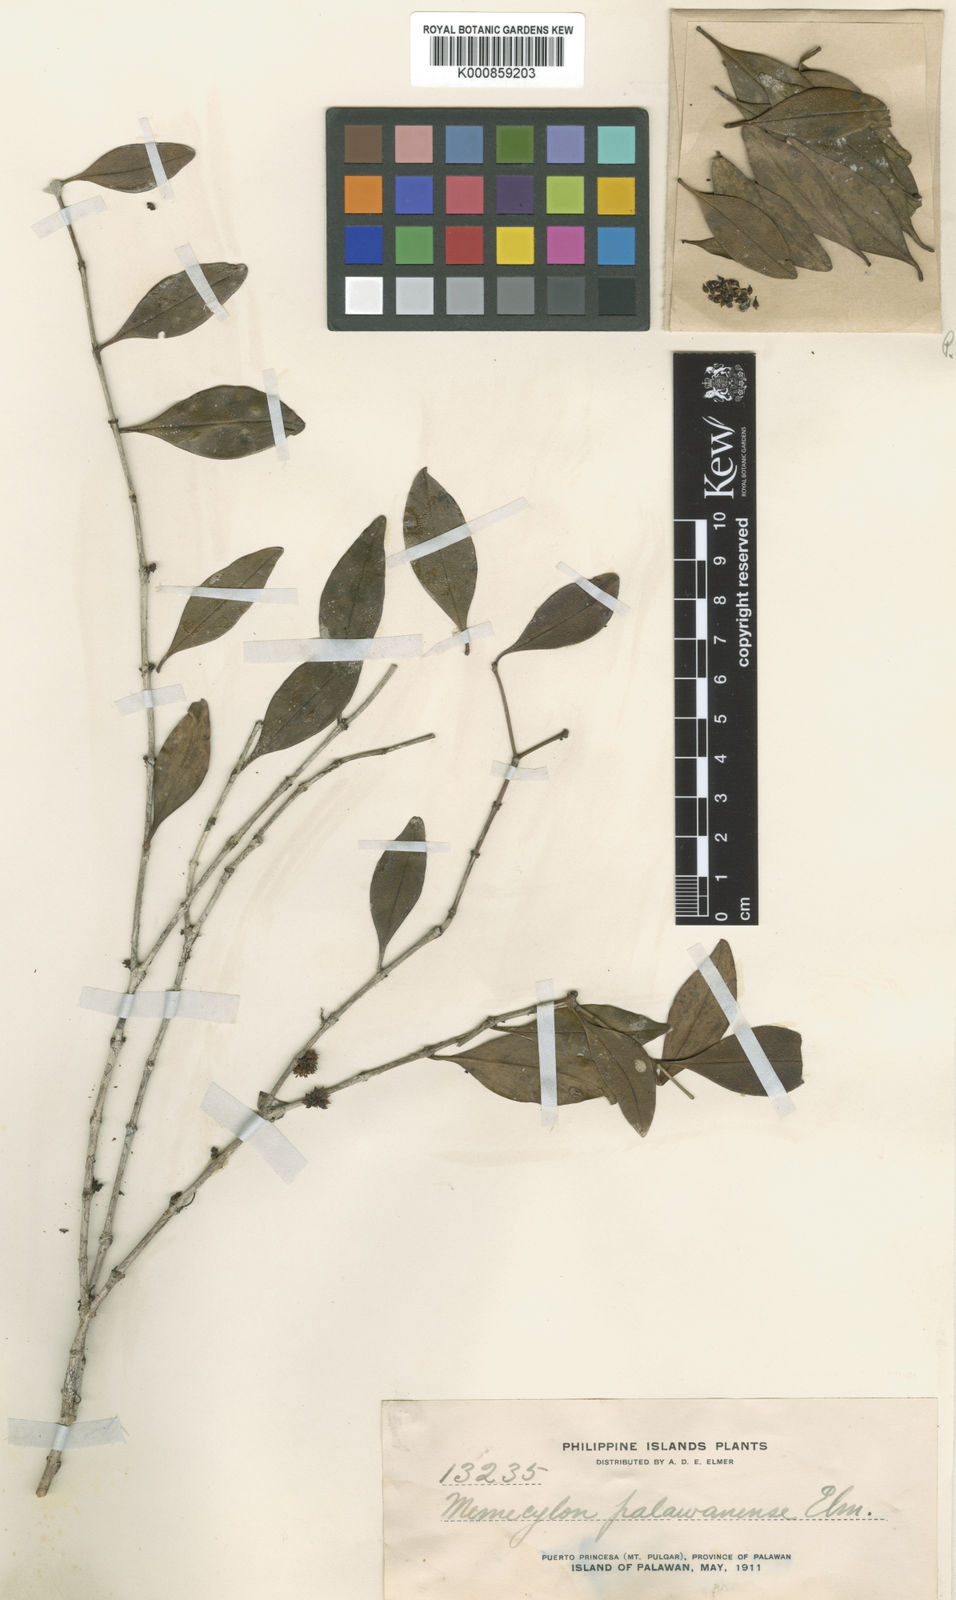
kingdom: Plantae
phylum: Tracheophyta
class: Magnoliopsida
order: Myrtales
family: Melastomataceae
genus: Memecylon
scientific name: Memecylon densiflorum
